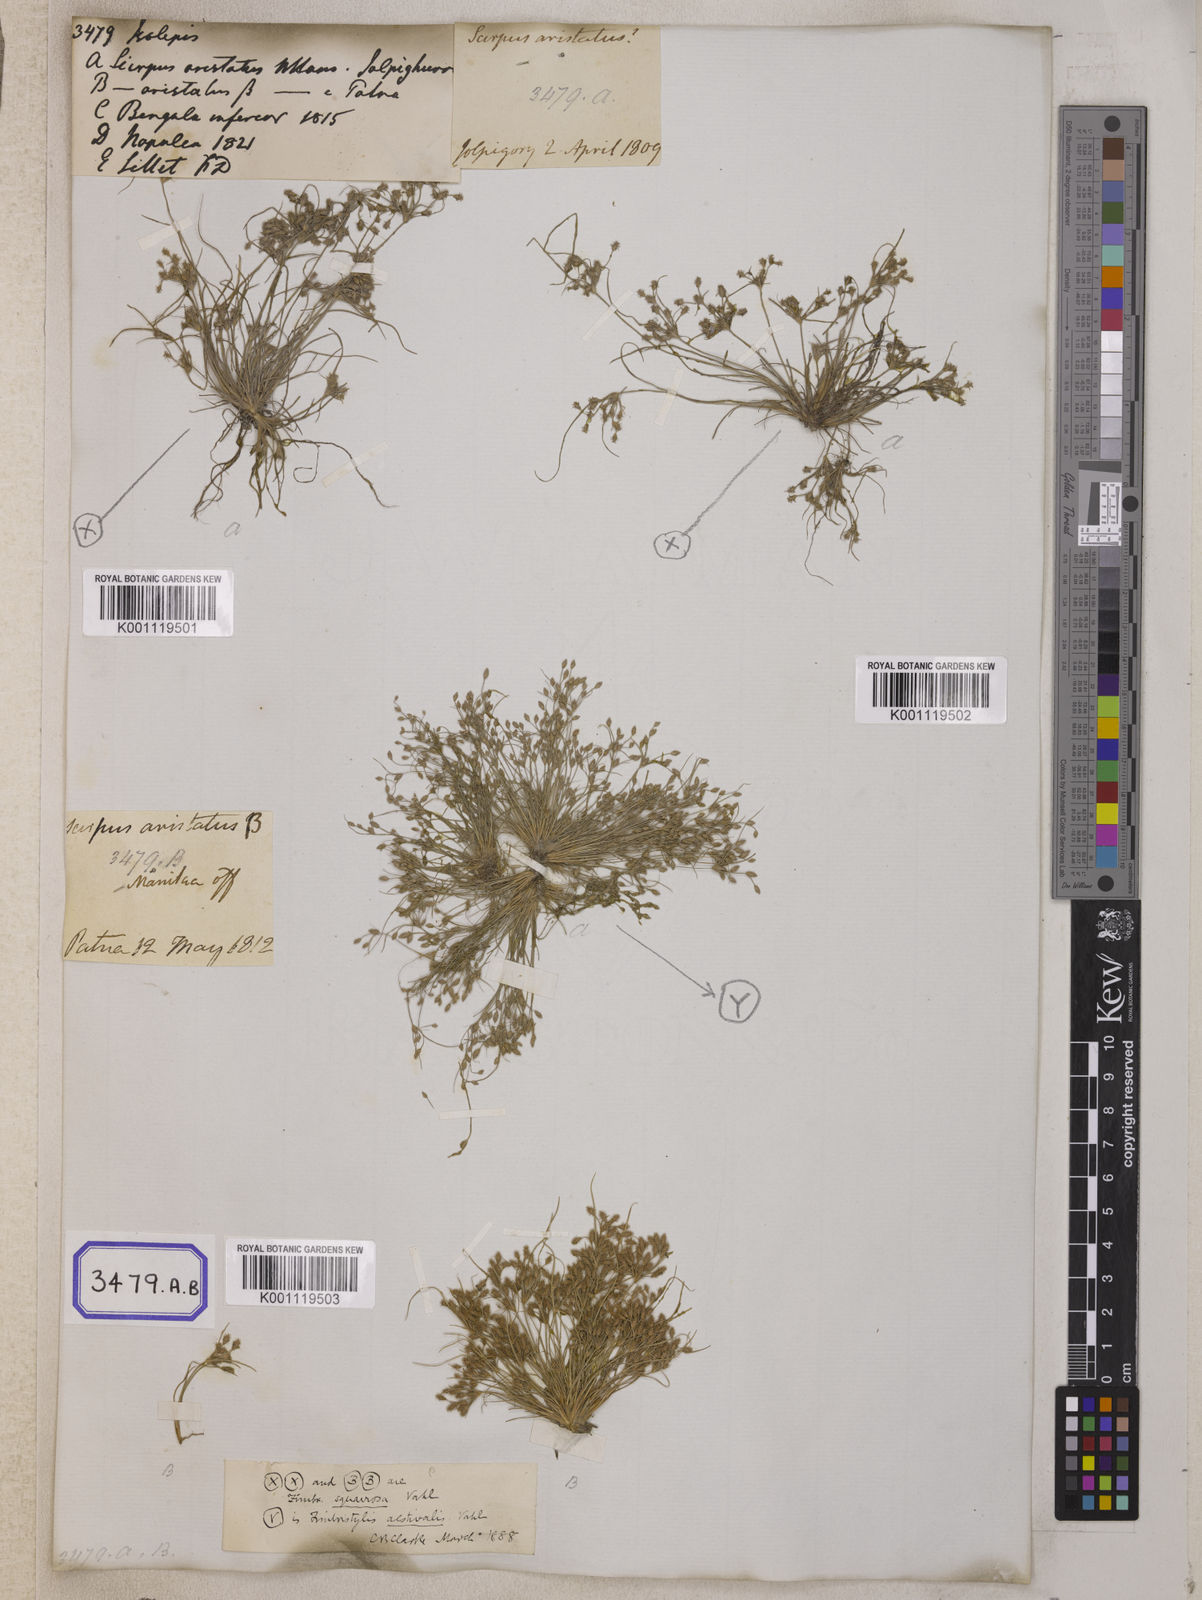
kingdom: Plantae
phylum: Tracheophyta
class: Liliopsida
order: Poales
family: Cyperaceae
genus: Isolepis
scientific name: Isolepis
